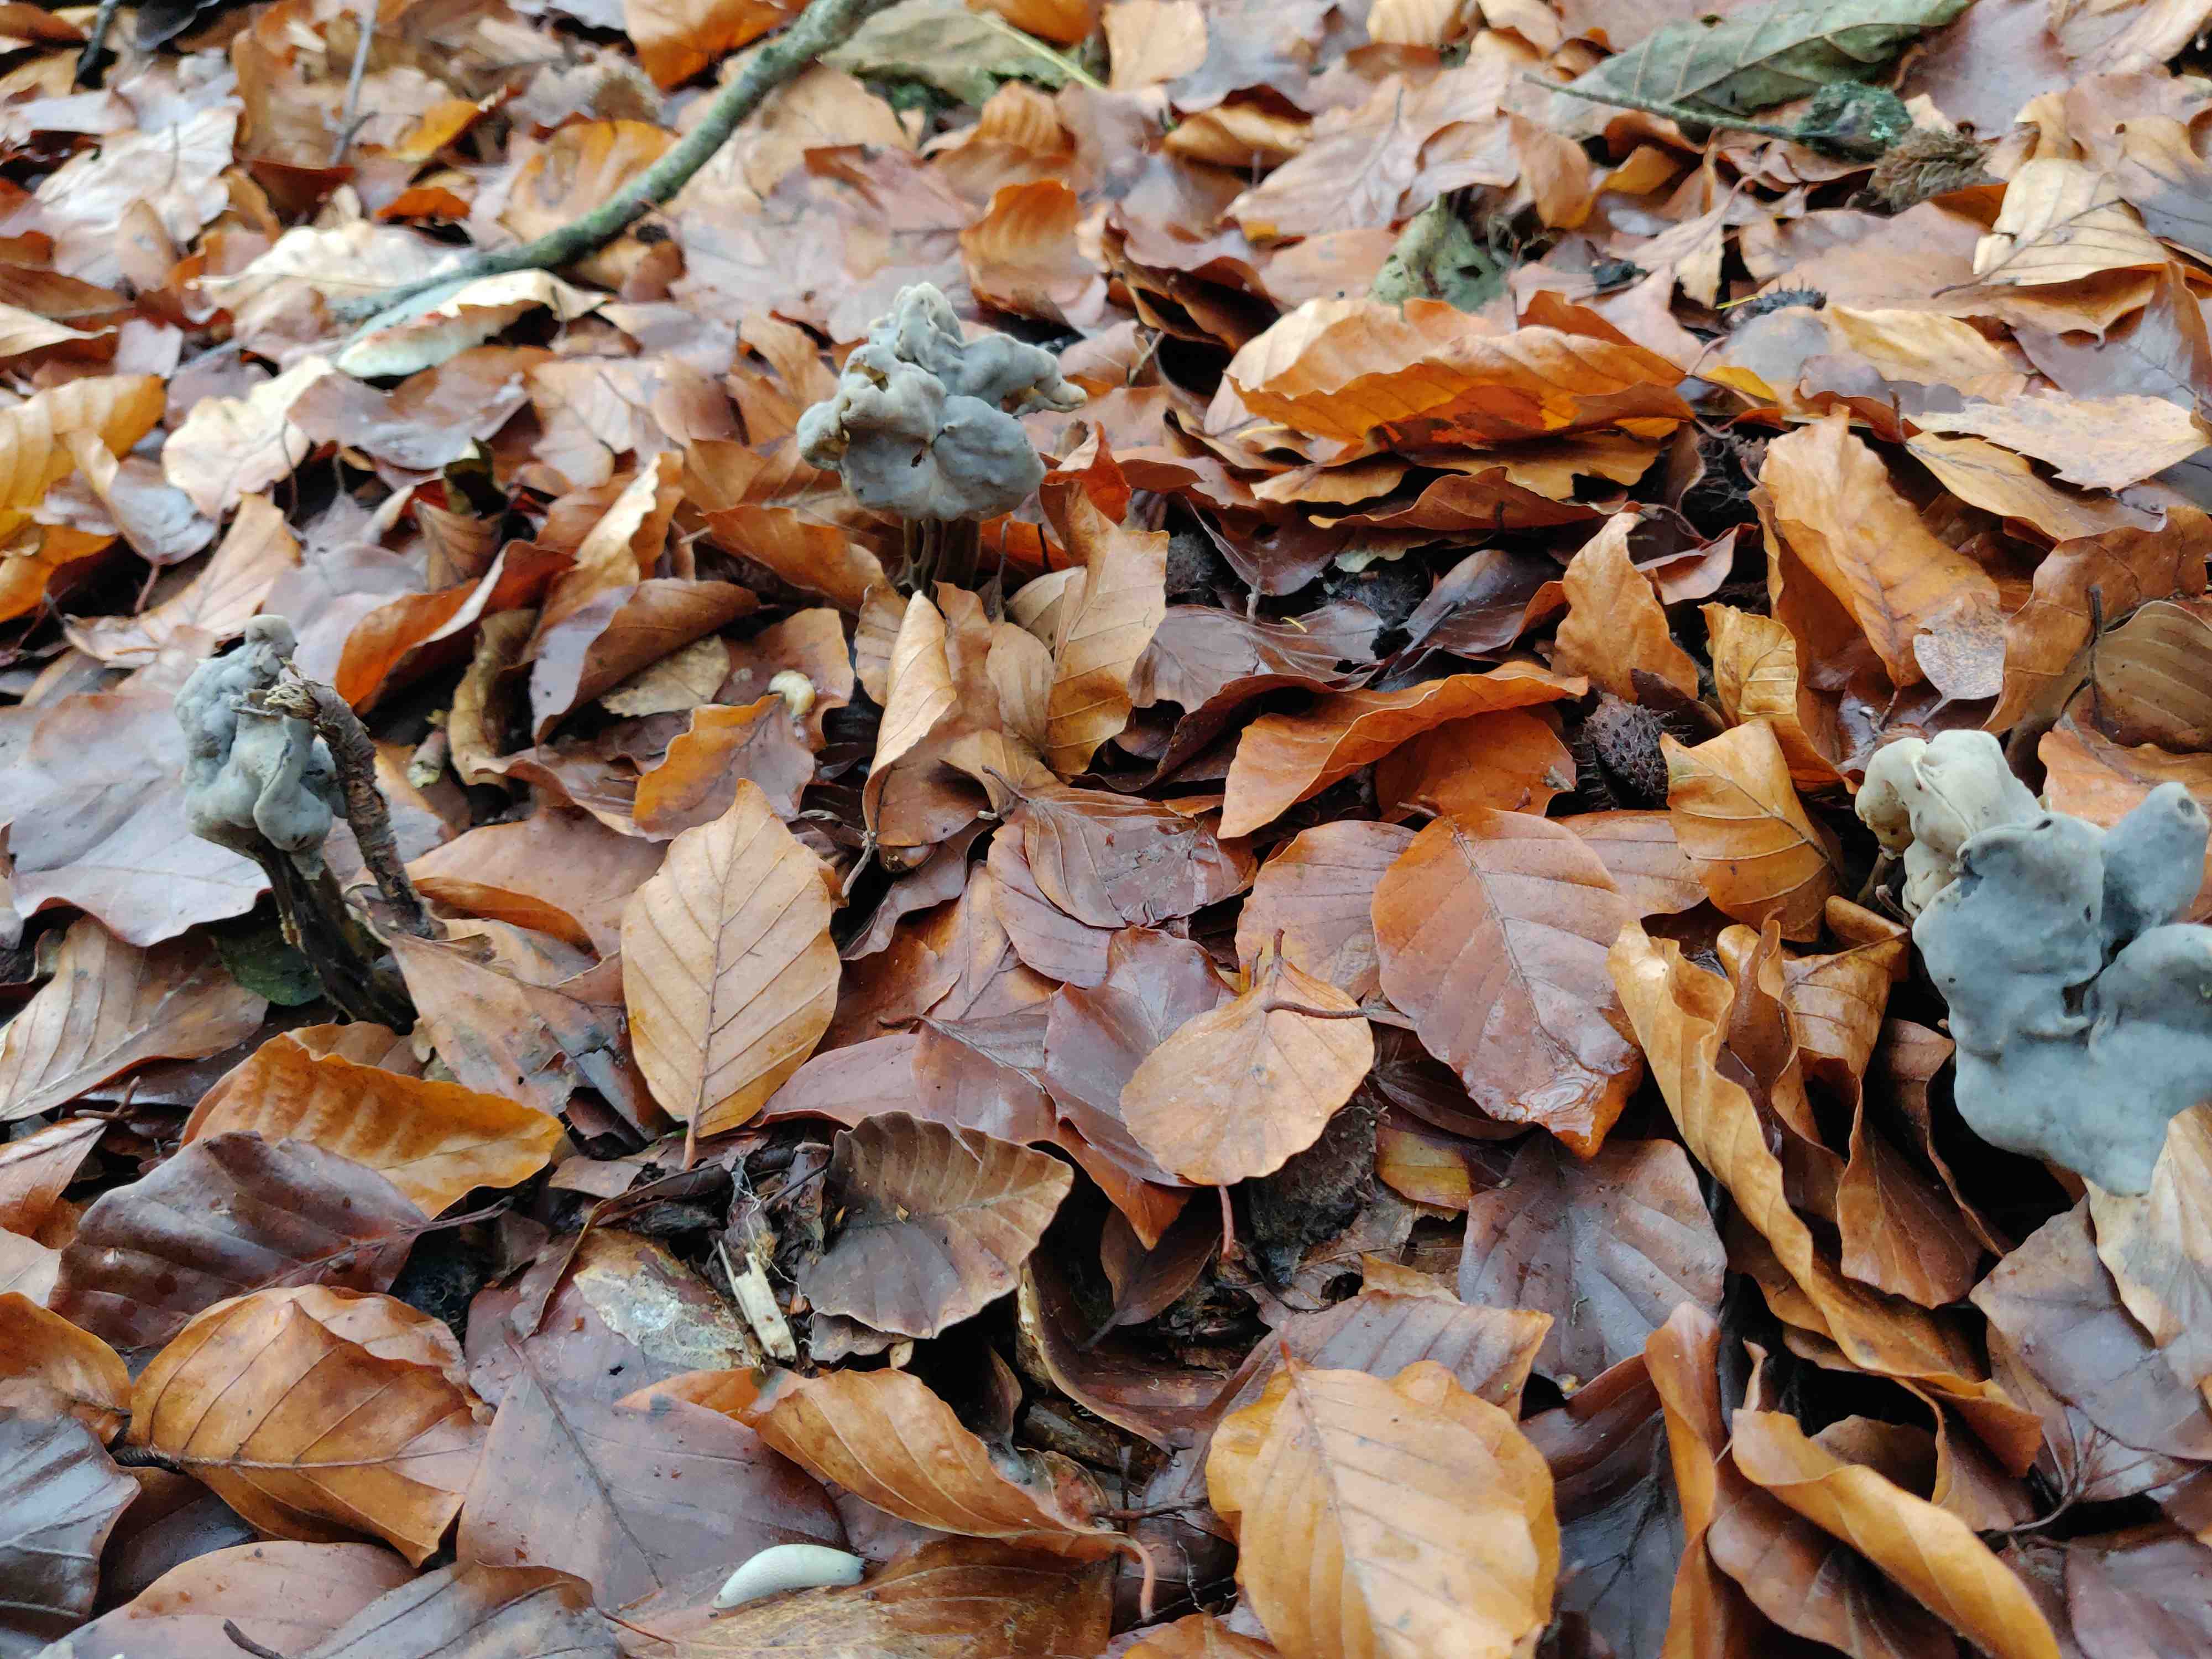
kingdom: Fungi
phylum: Ascomycota
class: Pezizomycetes
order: Pezizales
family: Helvellaceae
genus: Helvella
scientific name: Helvella lacunosa
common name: grubet foldhat
